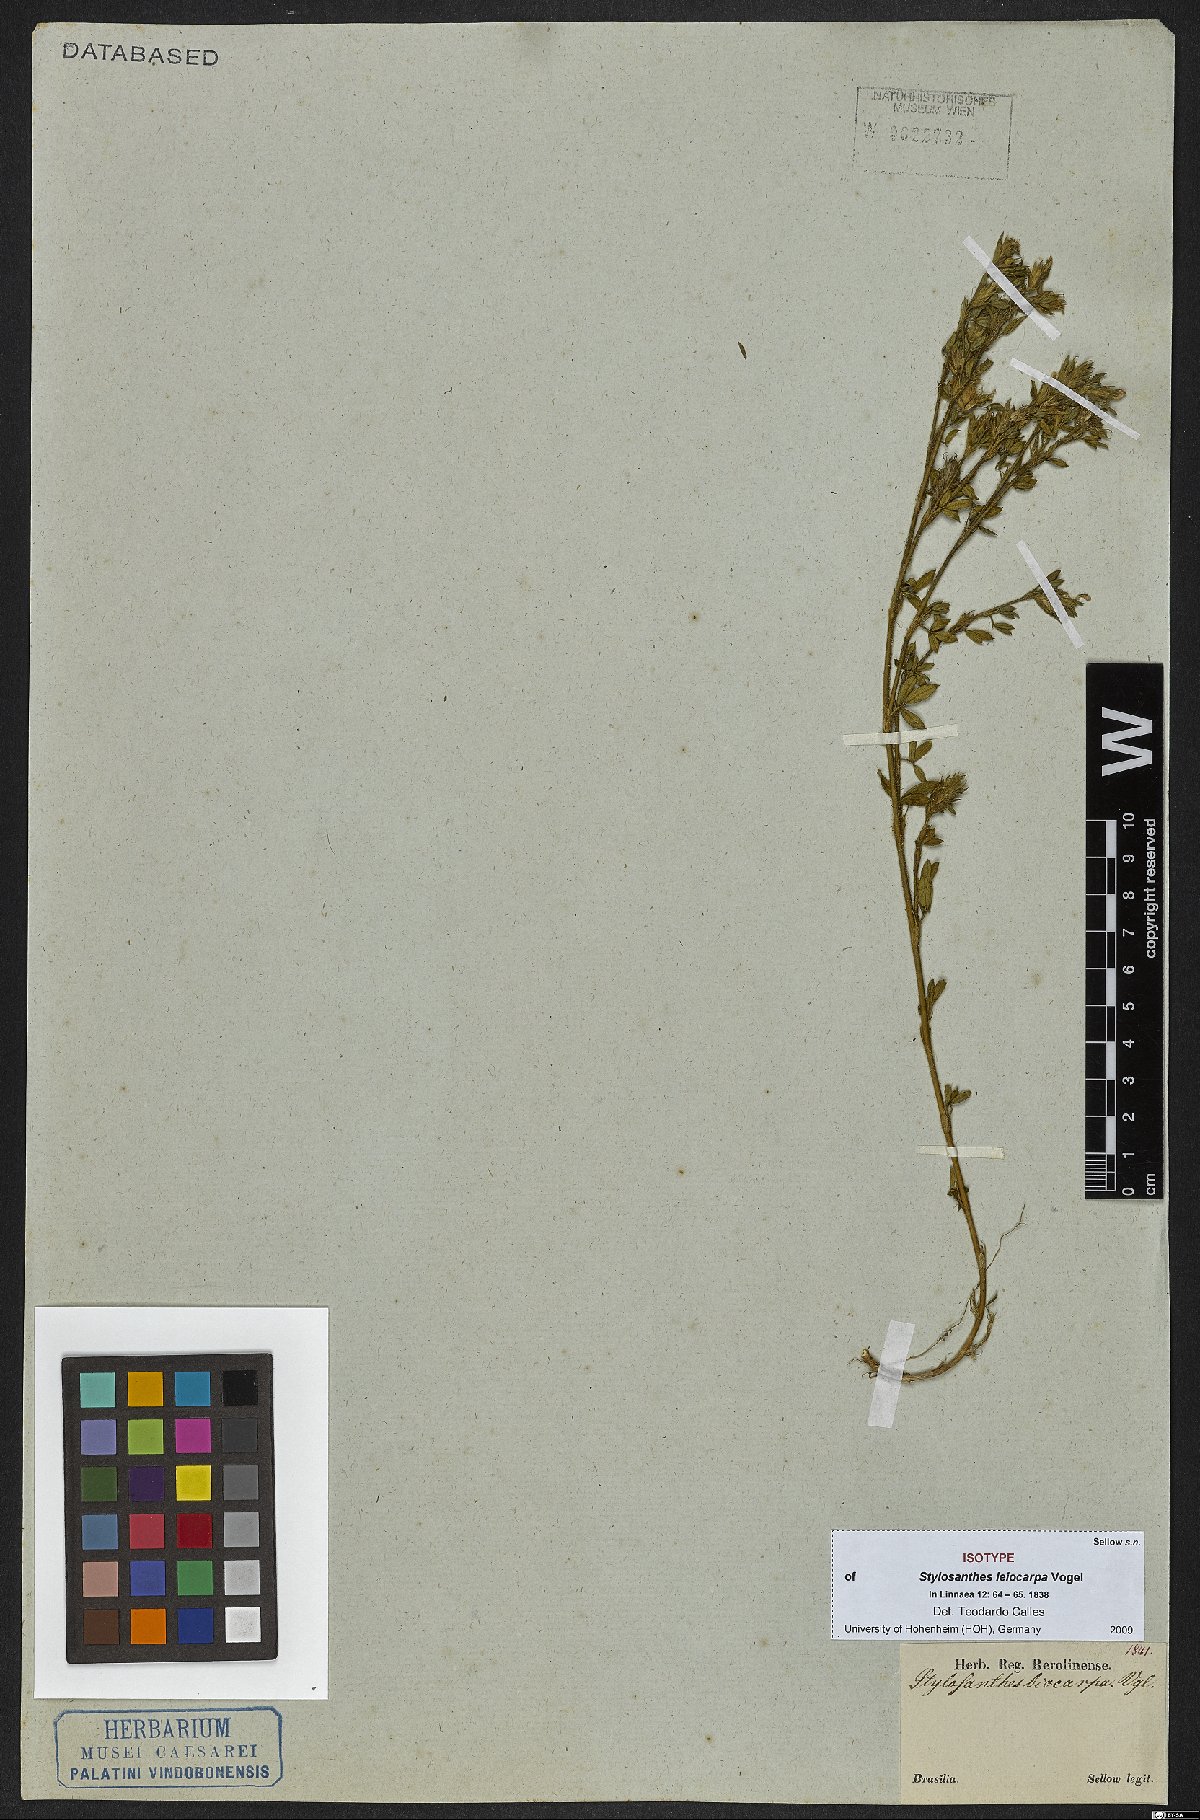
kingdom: Plantae
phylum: Tracheophyta
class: Magnoliopsida
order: Fabales
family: Fabaceae
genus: Stylosanthes
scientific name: Stylosanthes leiocarpa
